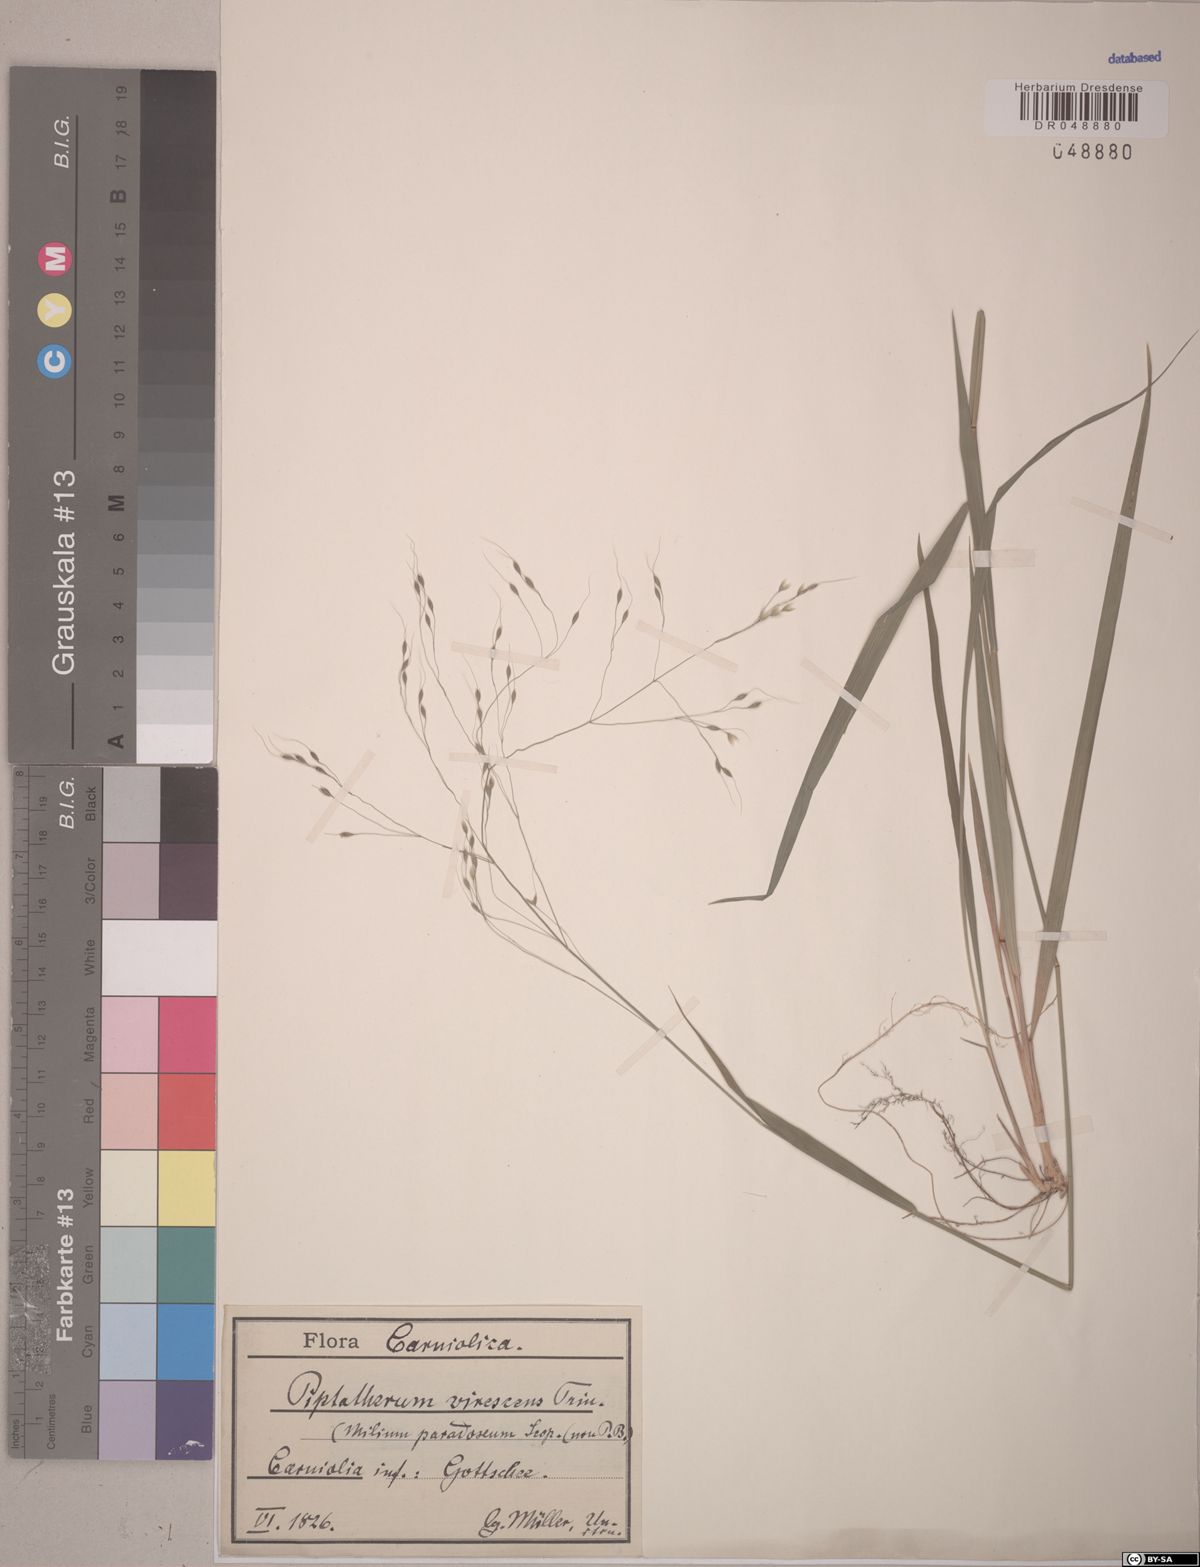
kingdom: Plantae
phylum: Tracheophyta
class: Liliopsida
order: Poales
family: Poaceae
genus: Achnatherum
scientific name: Achnatherum virescens
